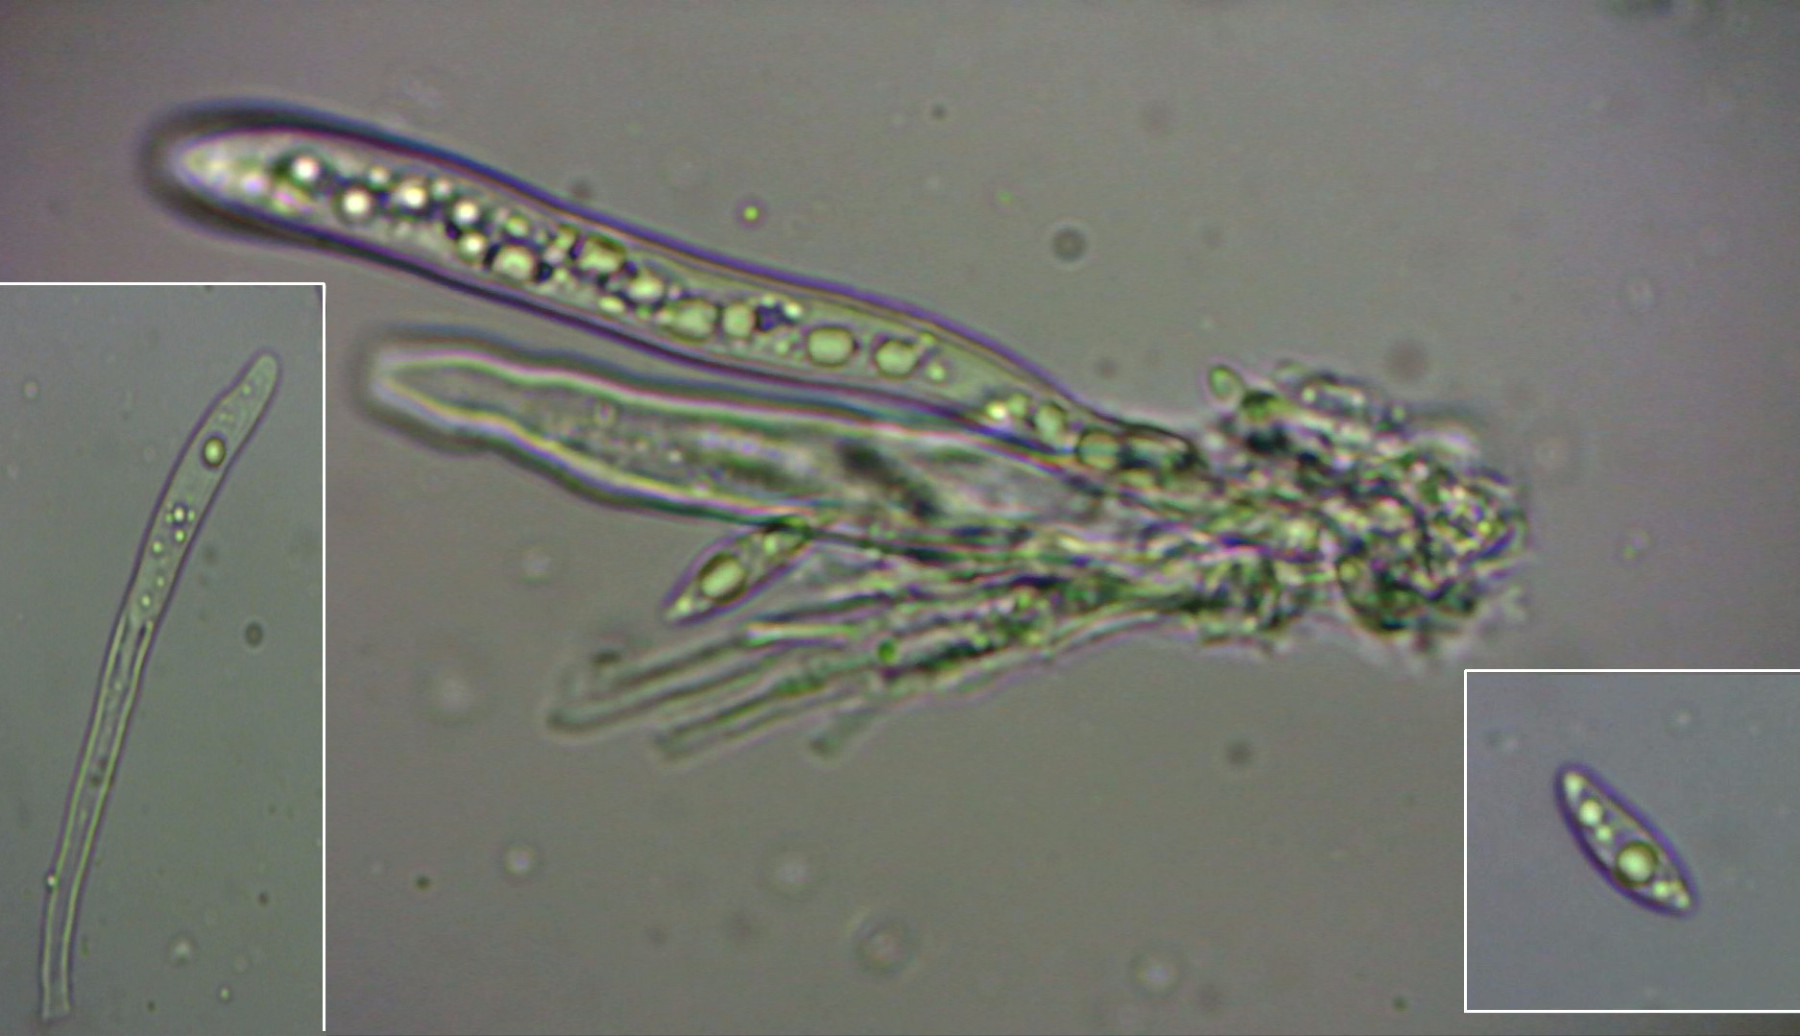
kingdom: Fungi
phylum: Ascomycota
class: Leotiomycetes
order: Helotiales
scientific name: Helotiales
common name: stilkskiveordenen
